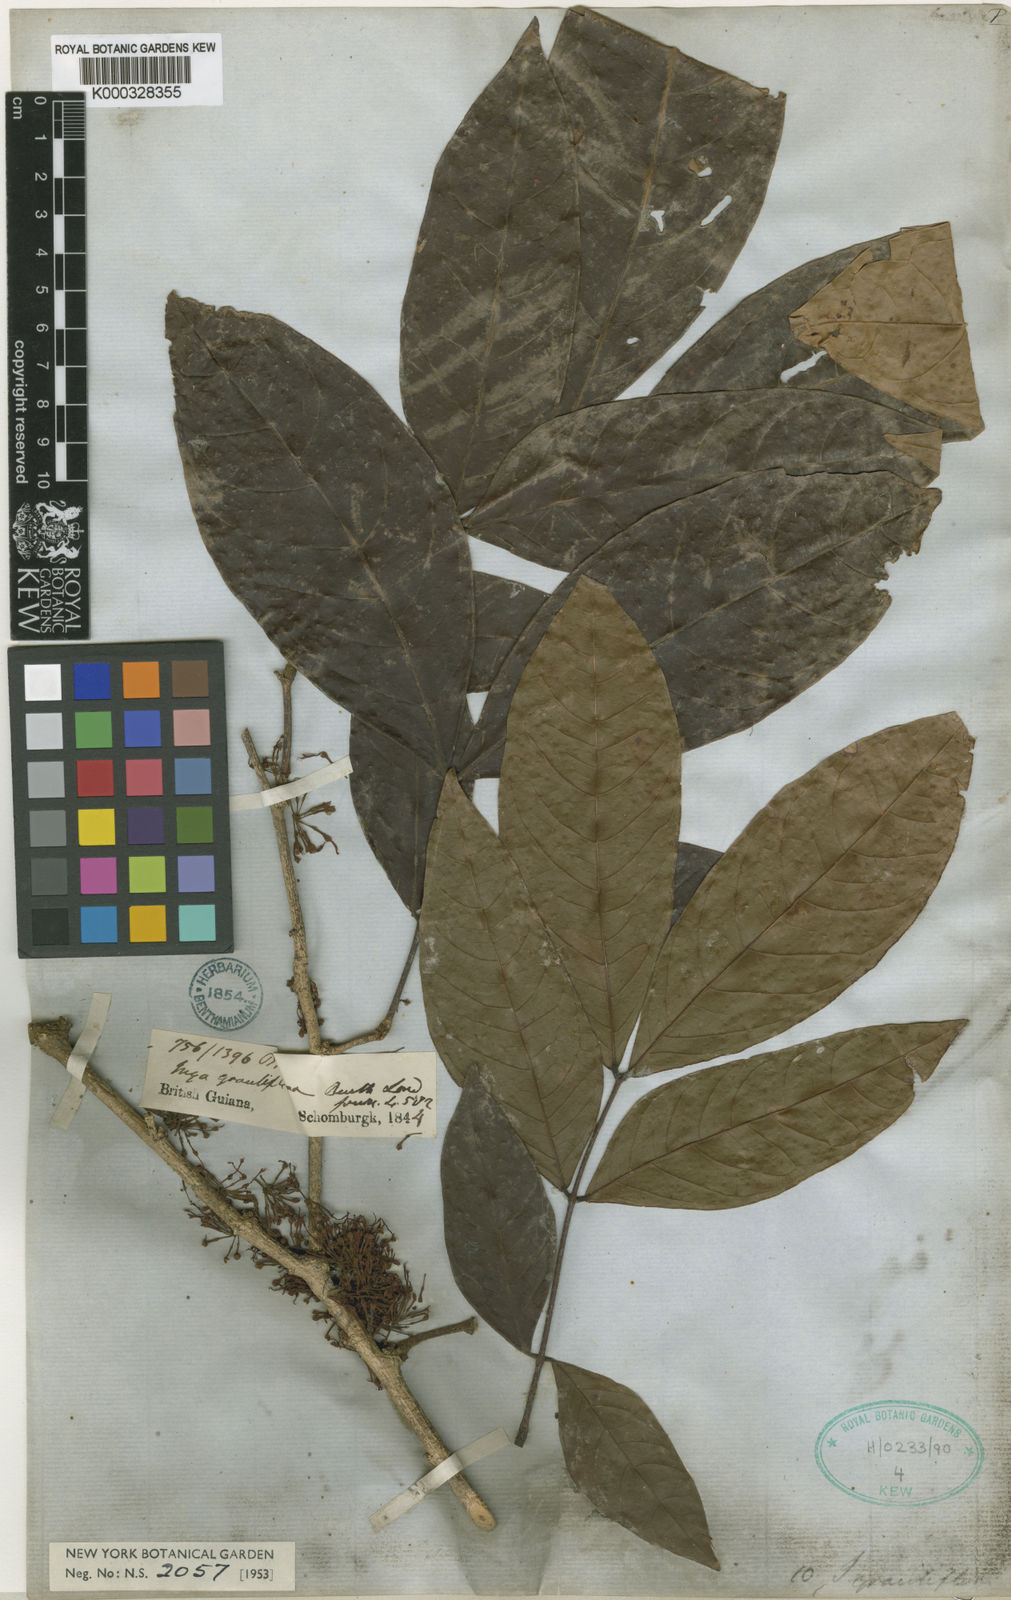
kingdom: Plantae
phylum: Tracheophyta
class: Magnoliopsida
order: Fabales
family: Fabaceae
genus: Inga
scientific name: Inga graciliflora
